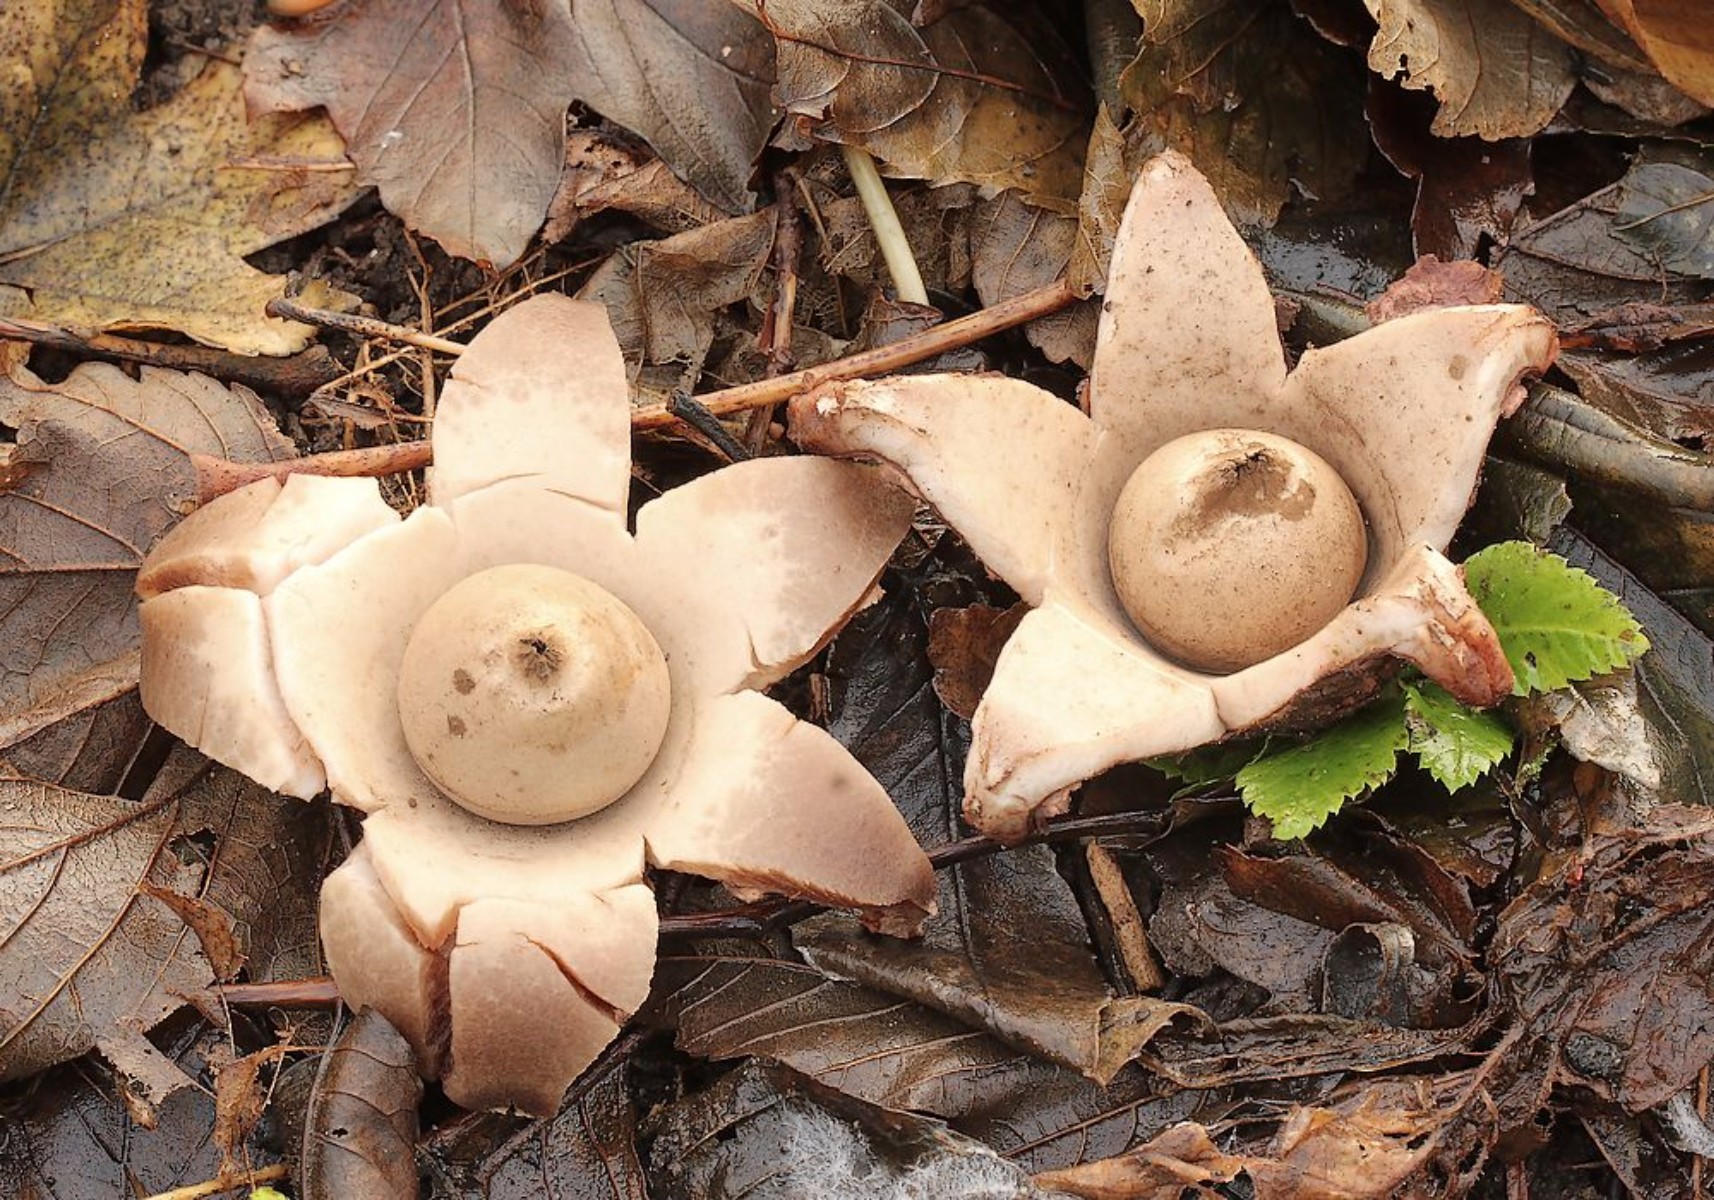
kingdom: Fungi
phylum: Basidiomycota
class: Agaricomycetes
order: Geastrales
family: Geastraceae
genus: Geastrum
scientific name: Geastrum michelianum
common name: kødet stjernebold
